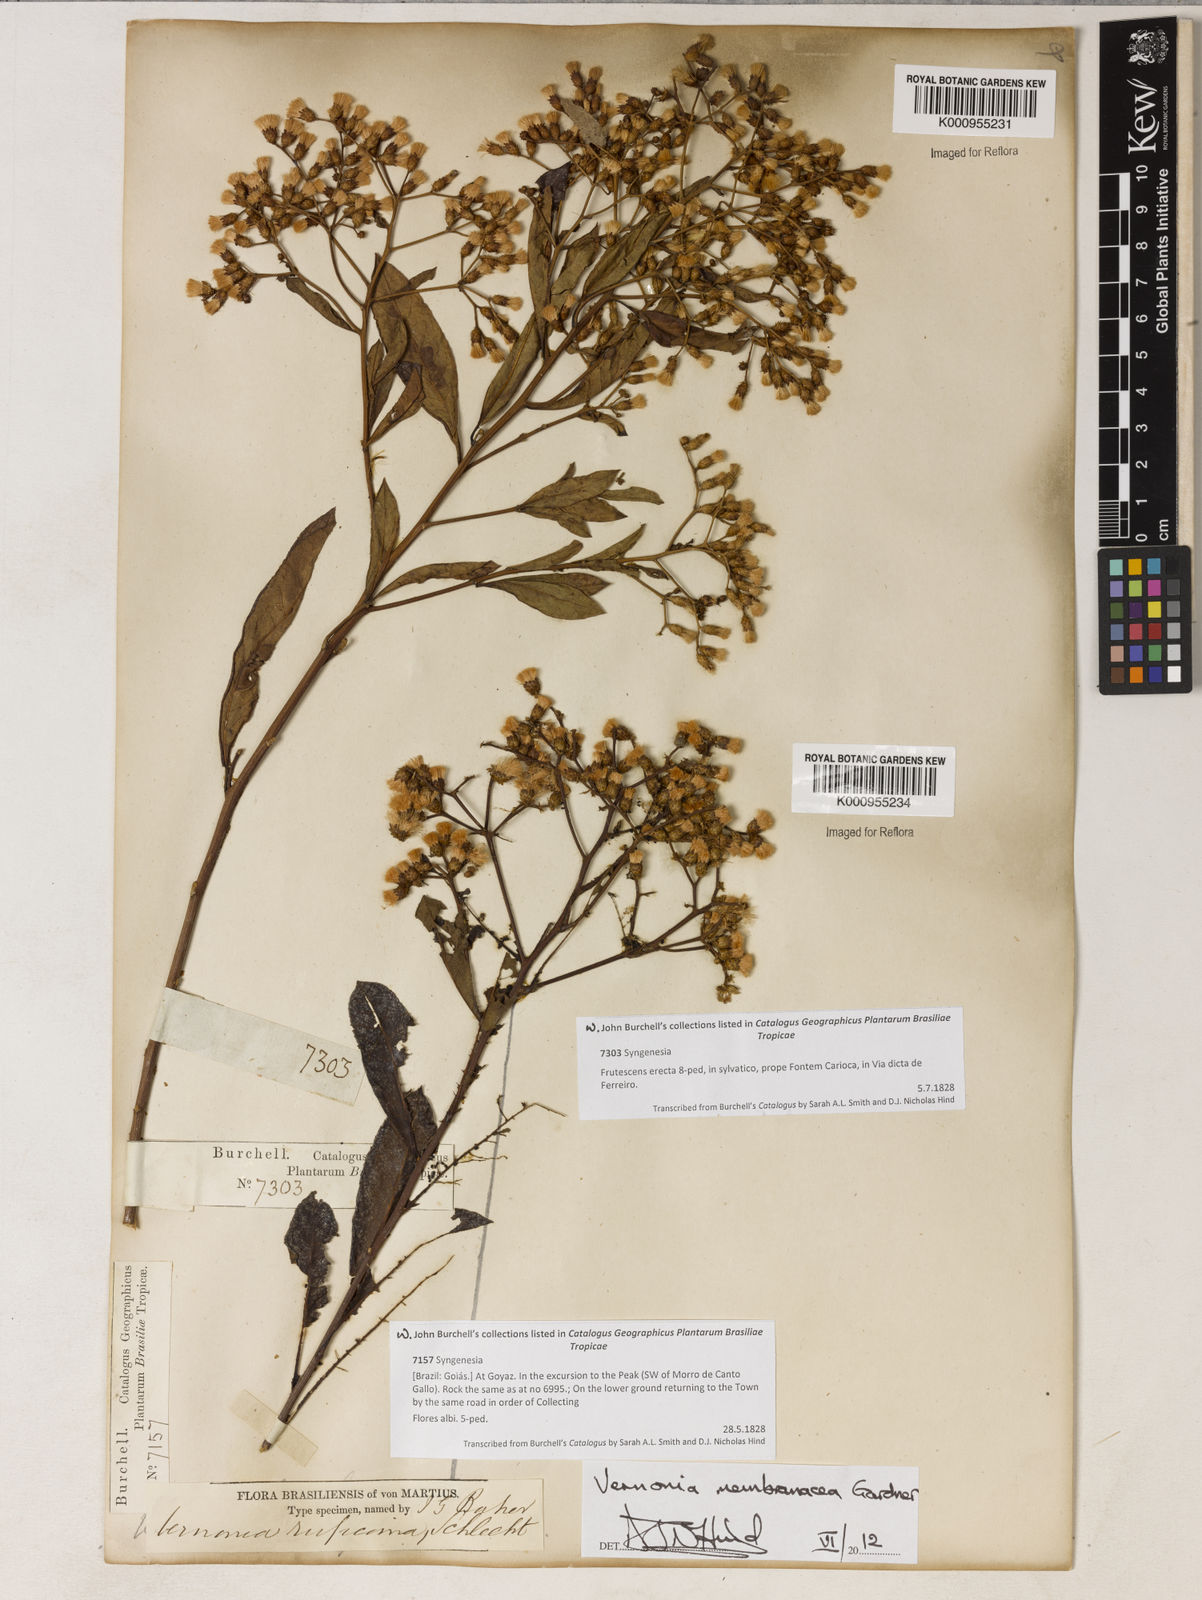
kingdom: Plantae
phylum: Tracheophyta
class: Magnoliopsida
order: Asterales
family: Asteraceae
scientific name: Asteraceae
